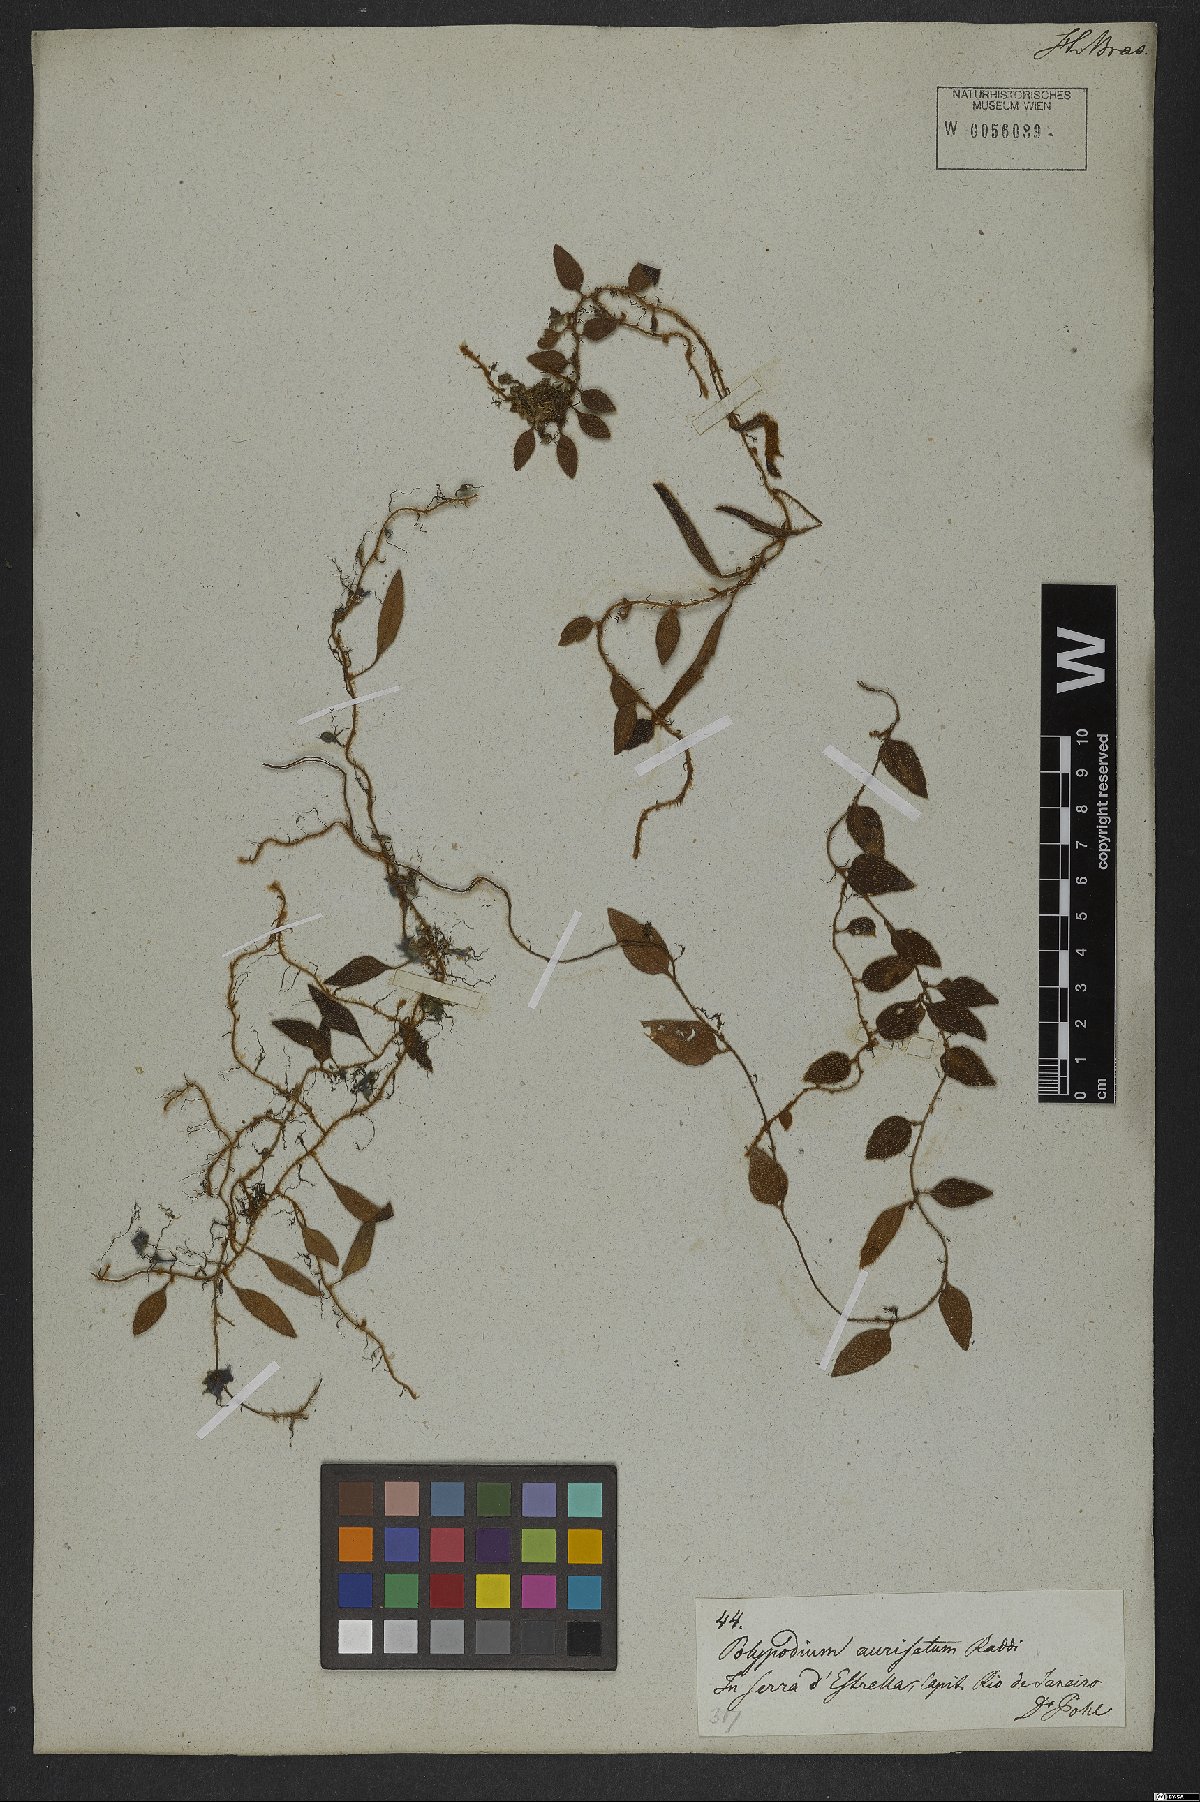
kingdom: Plantae
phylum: Tracheophyta
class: Polypodiopsida
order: Polypodiales
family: Polypodiaceae
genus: Microgramma
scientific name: Microgramma tecta
